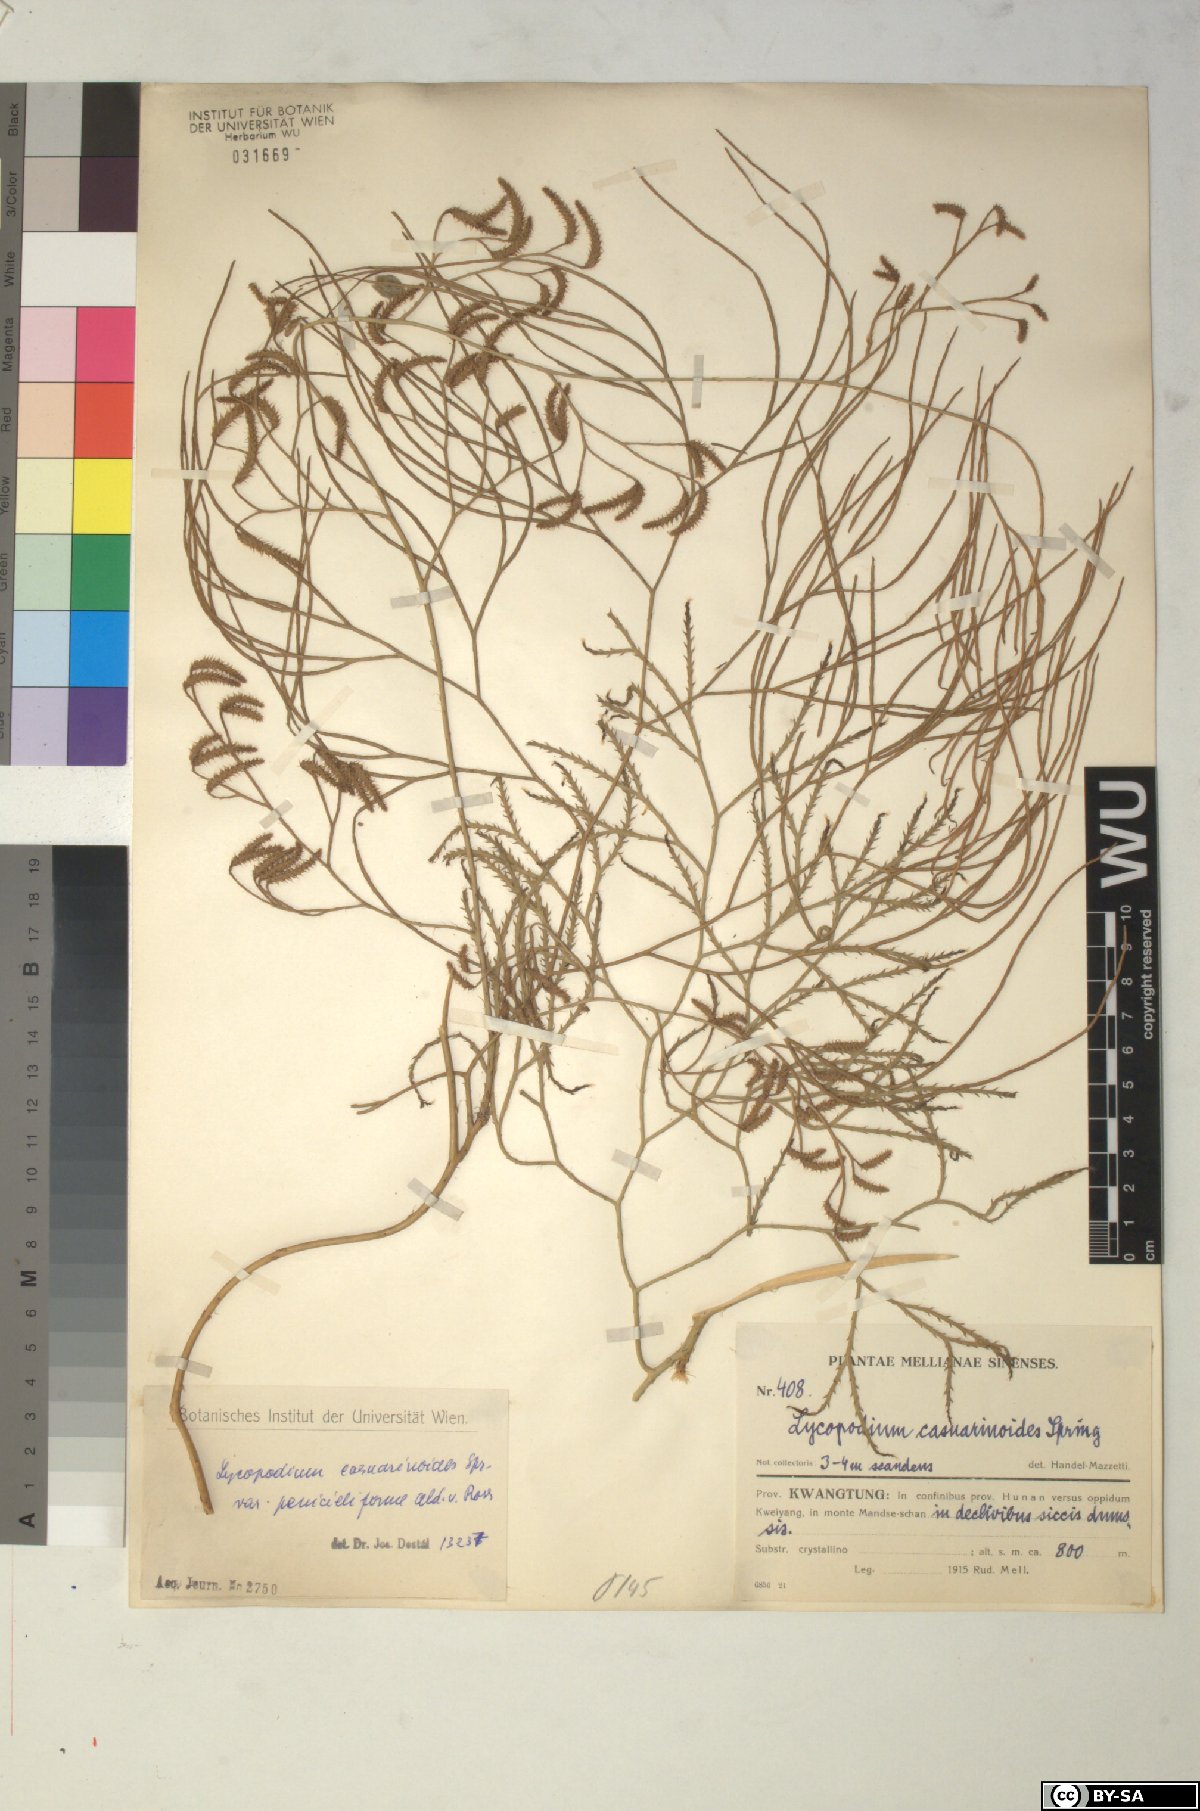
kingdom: Plantae
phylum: Tracheophyta
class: Lycopodiopsida
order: Lycopodiales
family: Lycopodiaceae
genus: Lycopodiastrum
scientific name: Lycopodiastrum casuarinoides
